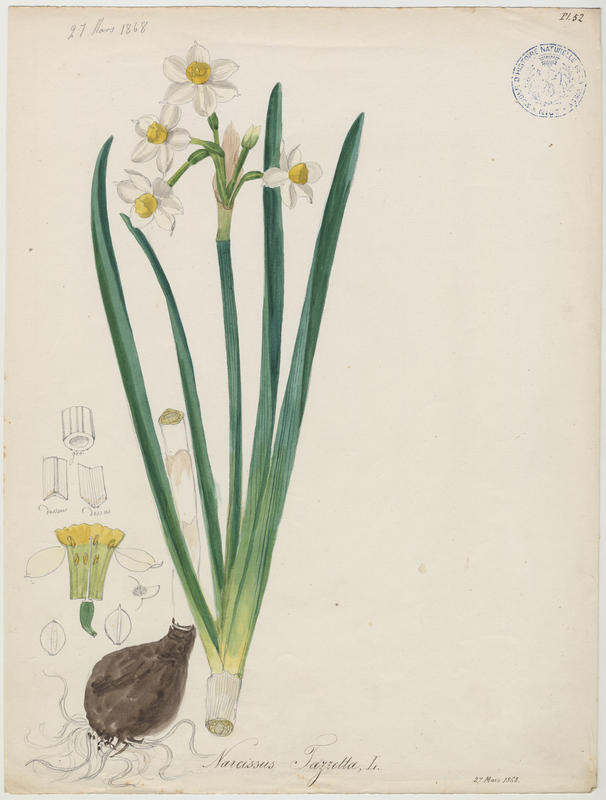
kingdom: Plantae
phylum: Tracheophyta
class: Liliopsida
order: Asparagales
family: Amaryllidaceae
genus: Narcissus
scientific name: Narcissus tazetta
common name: Bunch-flowered daffodil
